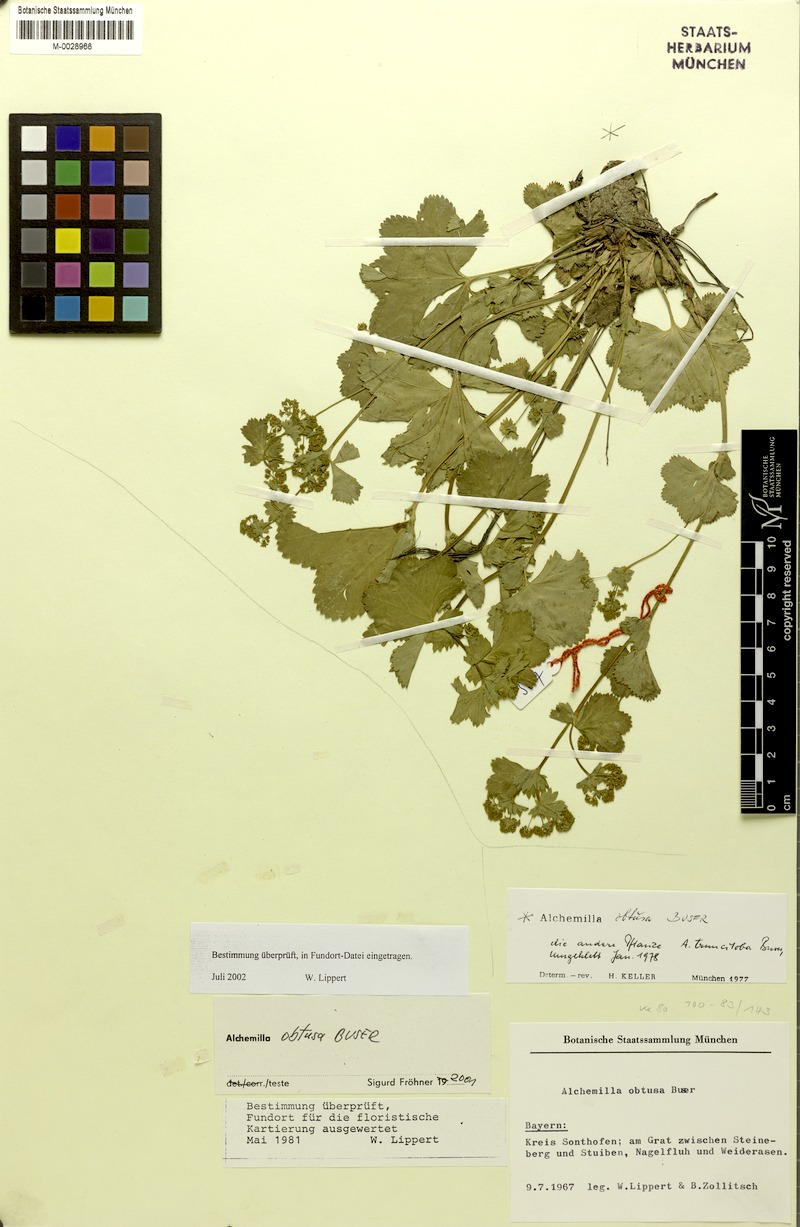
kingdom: Plantae
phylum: Tracheophyta
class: Magnoliopsida
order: Rosales
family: Rosaceae
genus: Alchemilla
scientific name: Alchemilla obtusa
